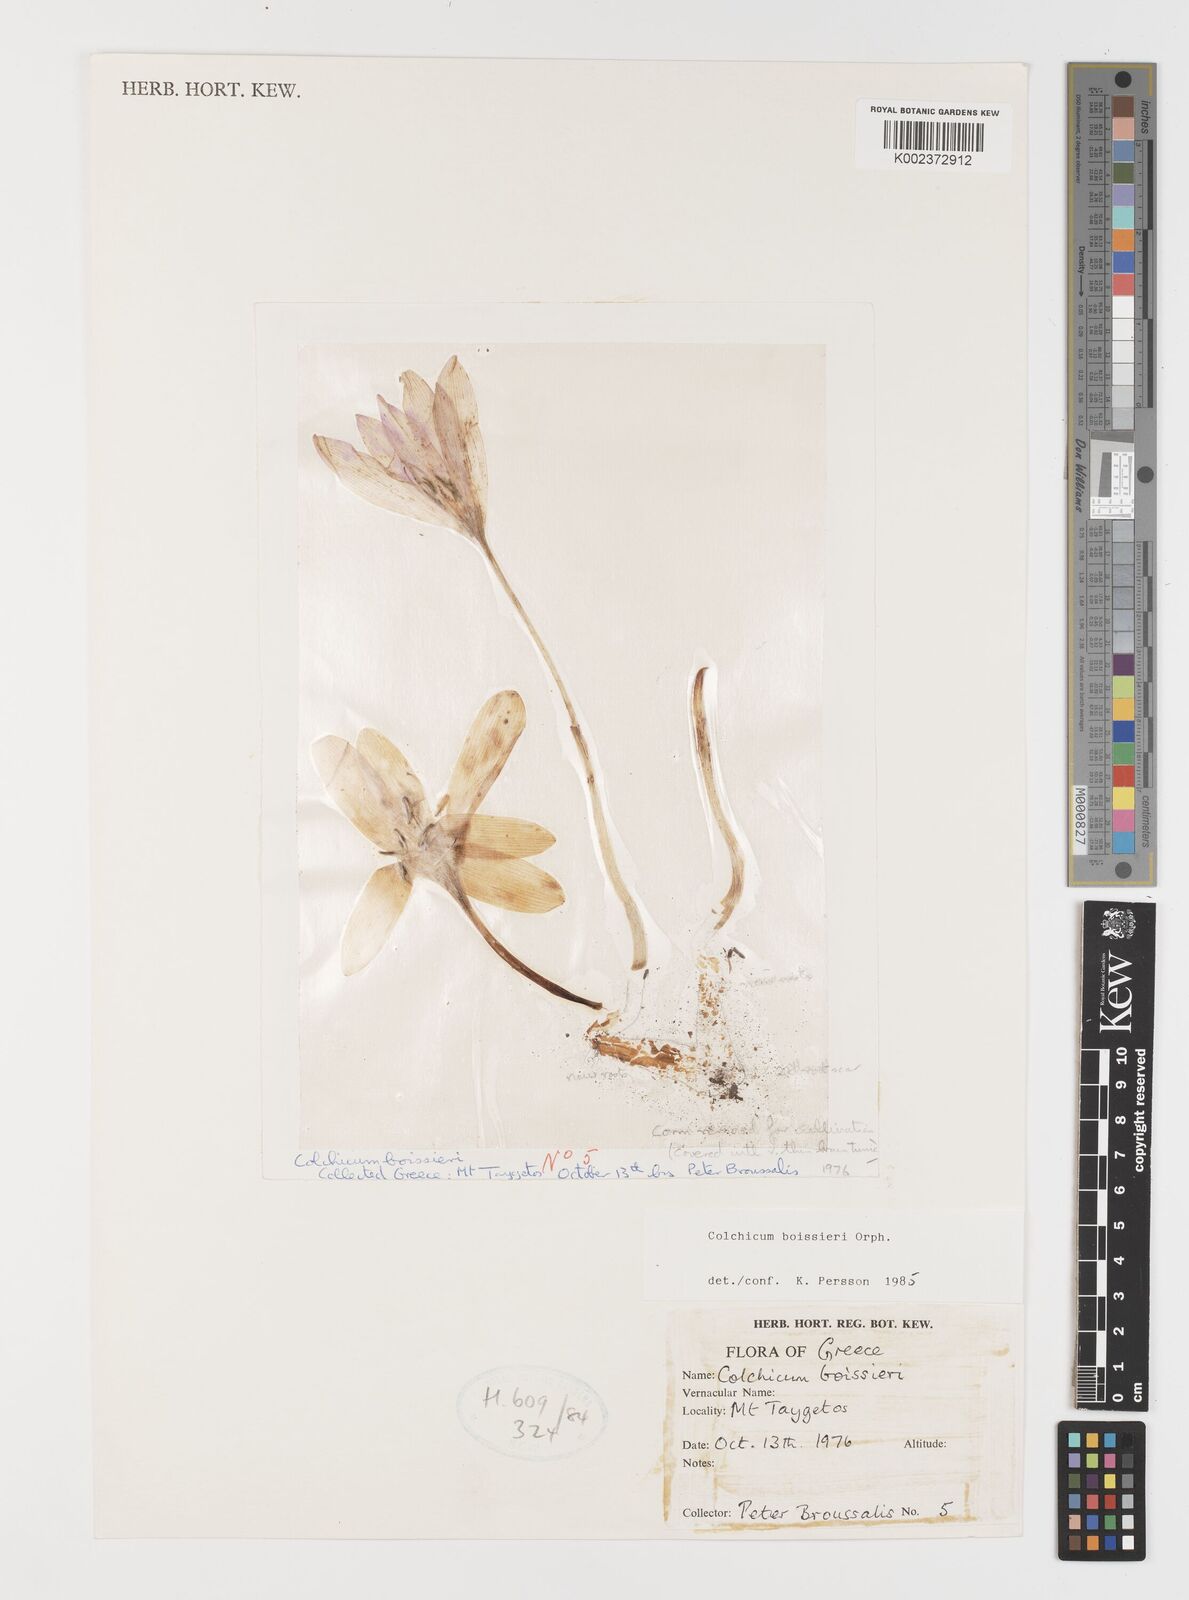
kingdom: Plantae
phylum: Tracheophyta
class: Liliopsida
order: Liliales
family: Colchicaceae
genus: Colchicum
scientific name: Colchicum boissieri
